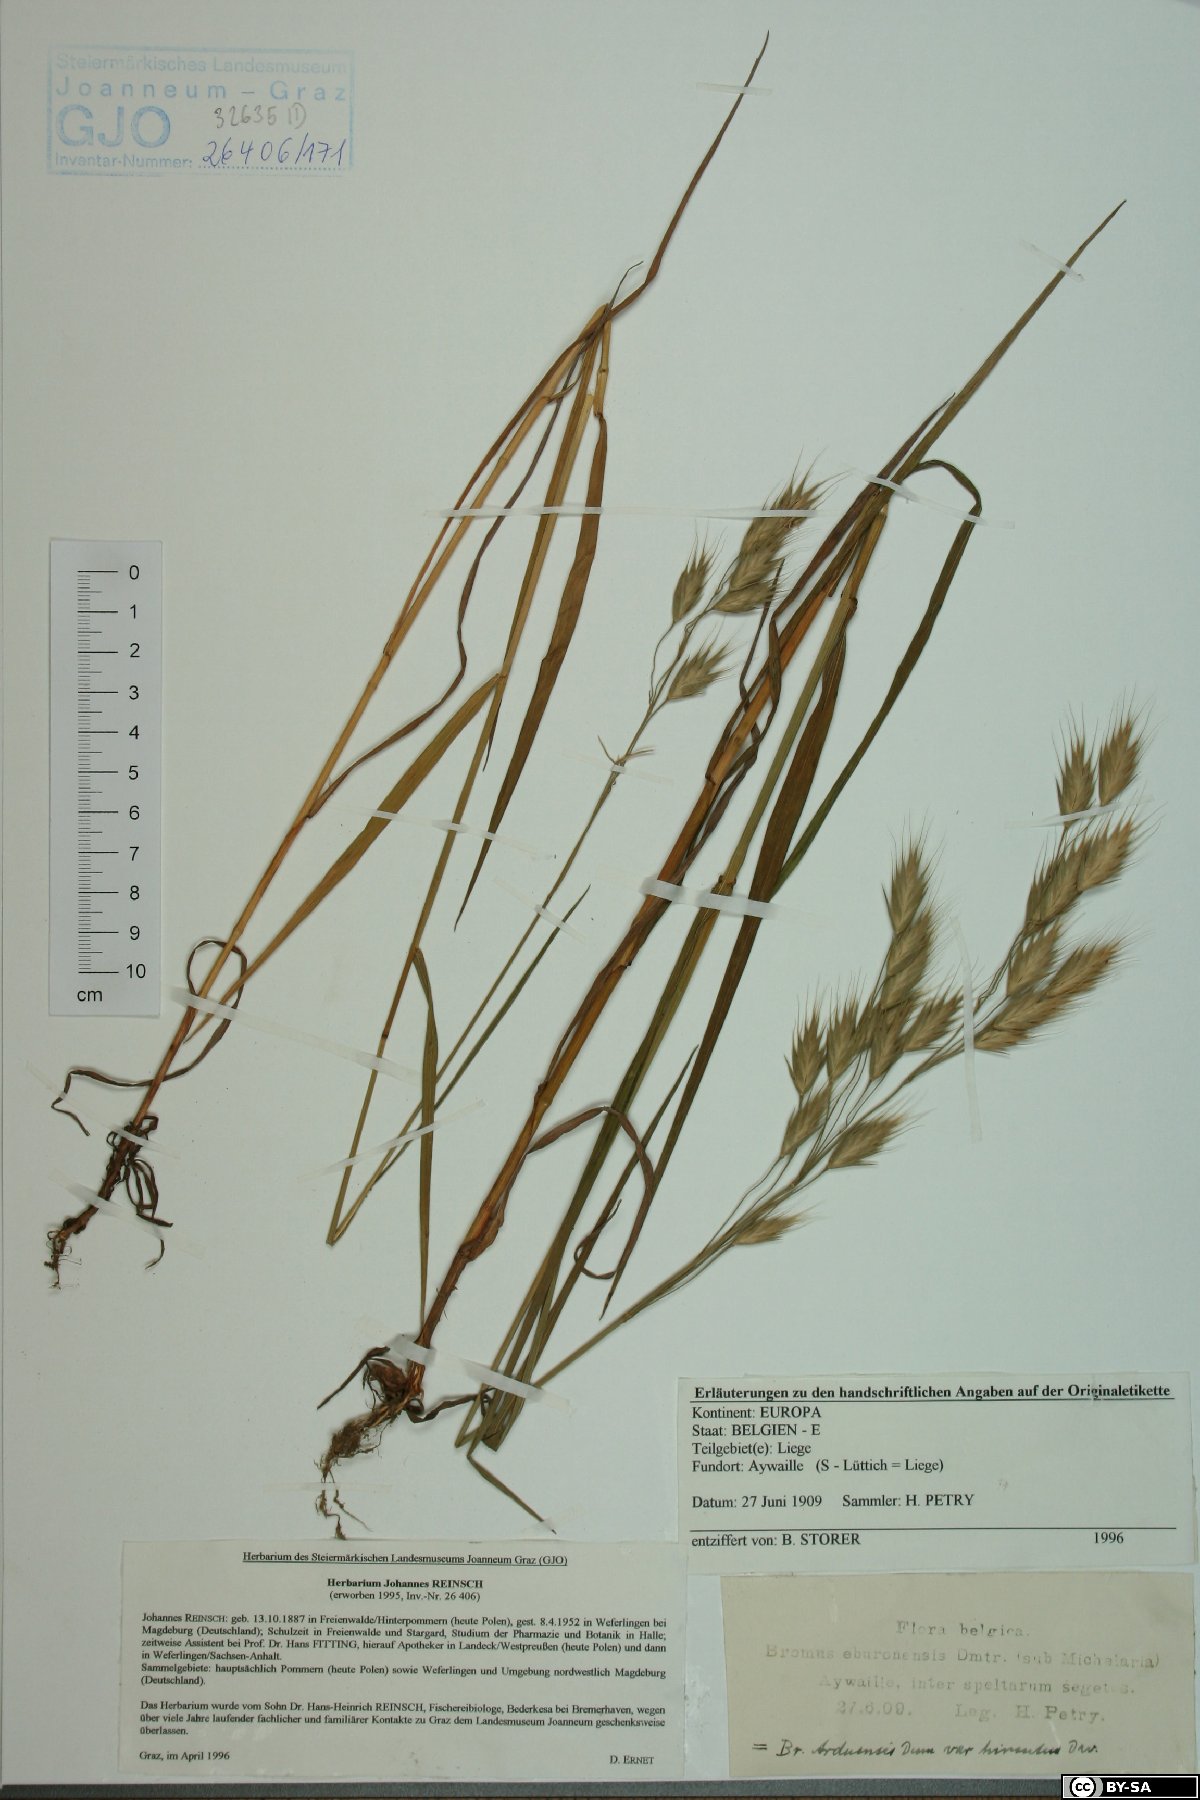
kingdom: Plantae
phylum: Tracheophyta
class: Liliopsida
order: Poales
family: Poaceae
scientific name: Poaceae
